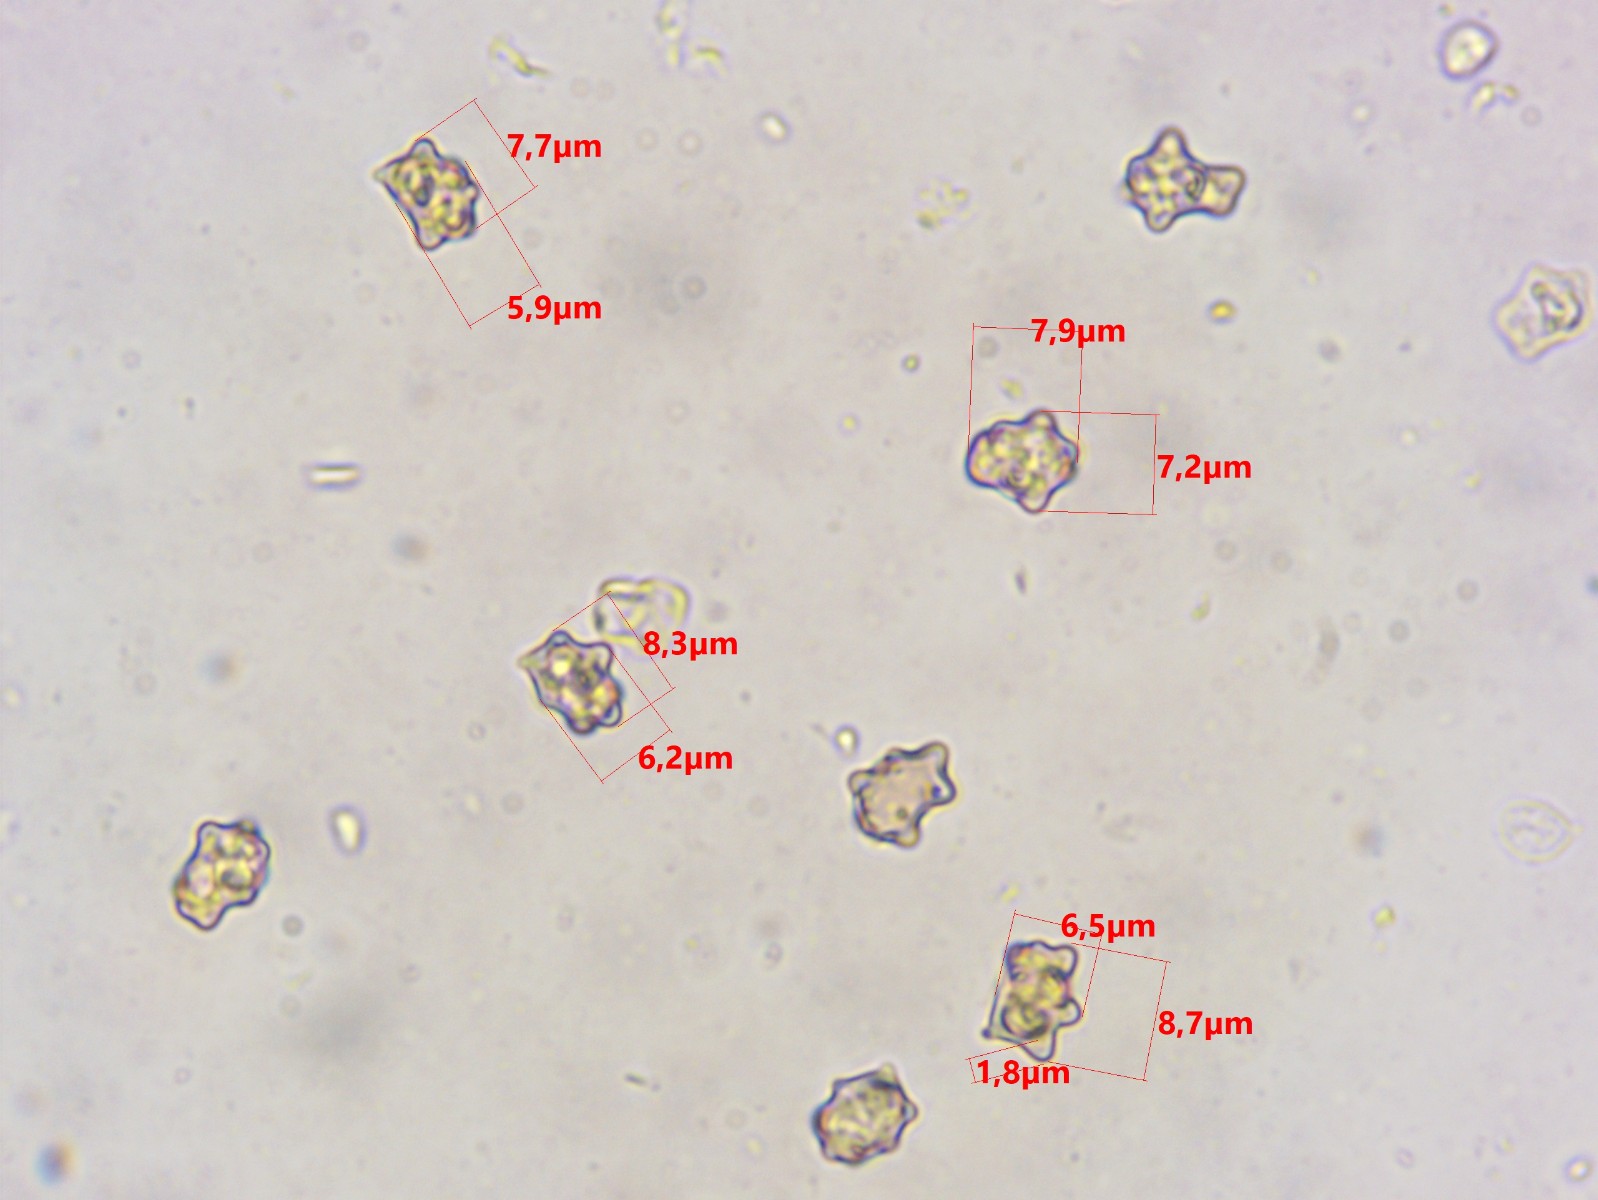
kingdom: Fungi
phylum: Basidiomycota
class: Agaricomycetes
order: Agaricales
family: Inocybaceae
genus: Inocybe
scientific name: Inocybe margaritispora
